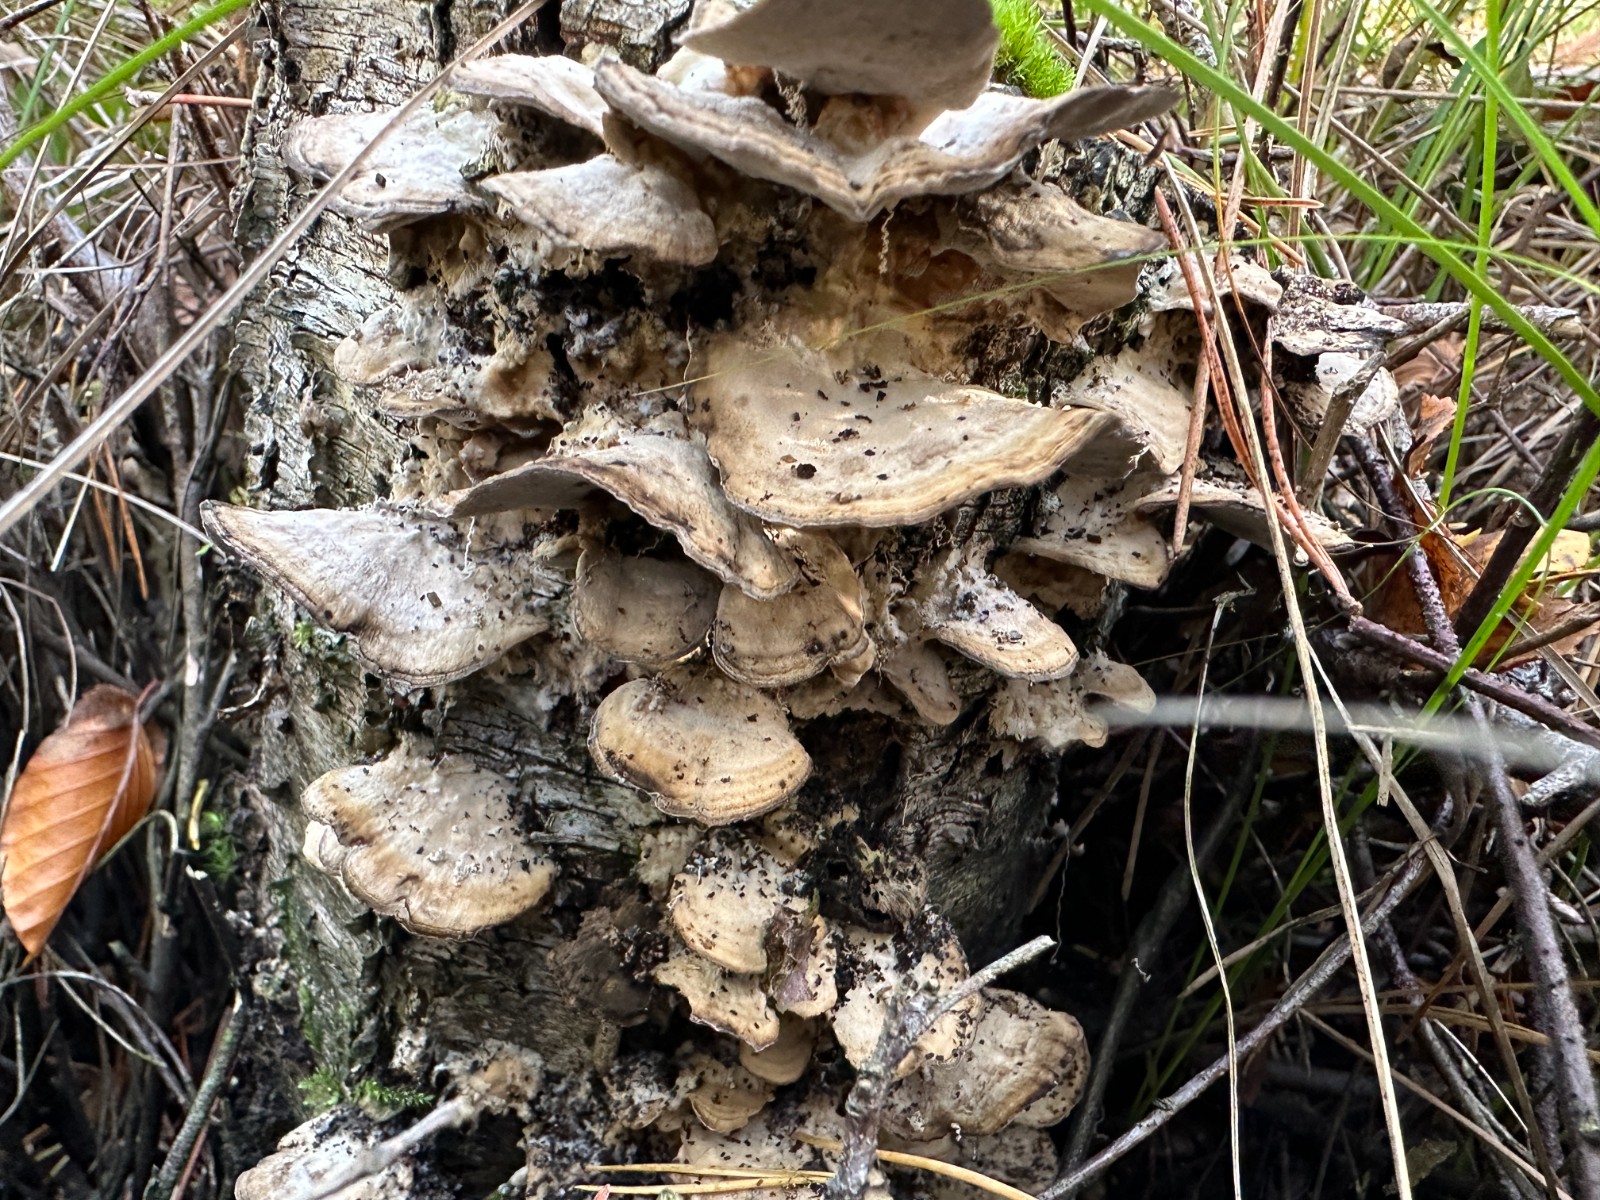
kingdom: Fungi
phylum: Basidiomycota
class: Agaricomycetes
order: Polyporales
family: Phanerochaetaceae
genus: Bjerkandera
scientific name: Bjerkandera adusta
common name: sveden sodporesvamp
